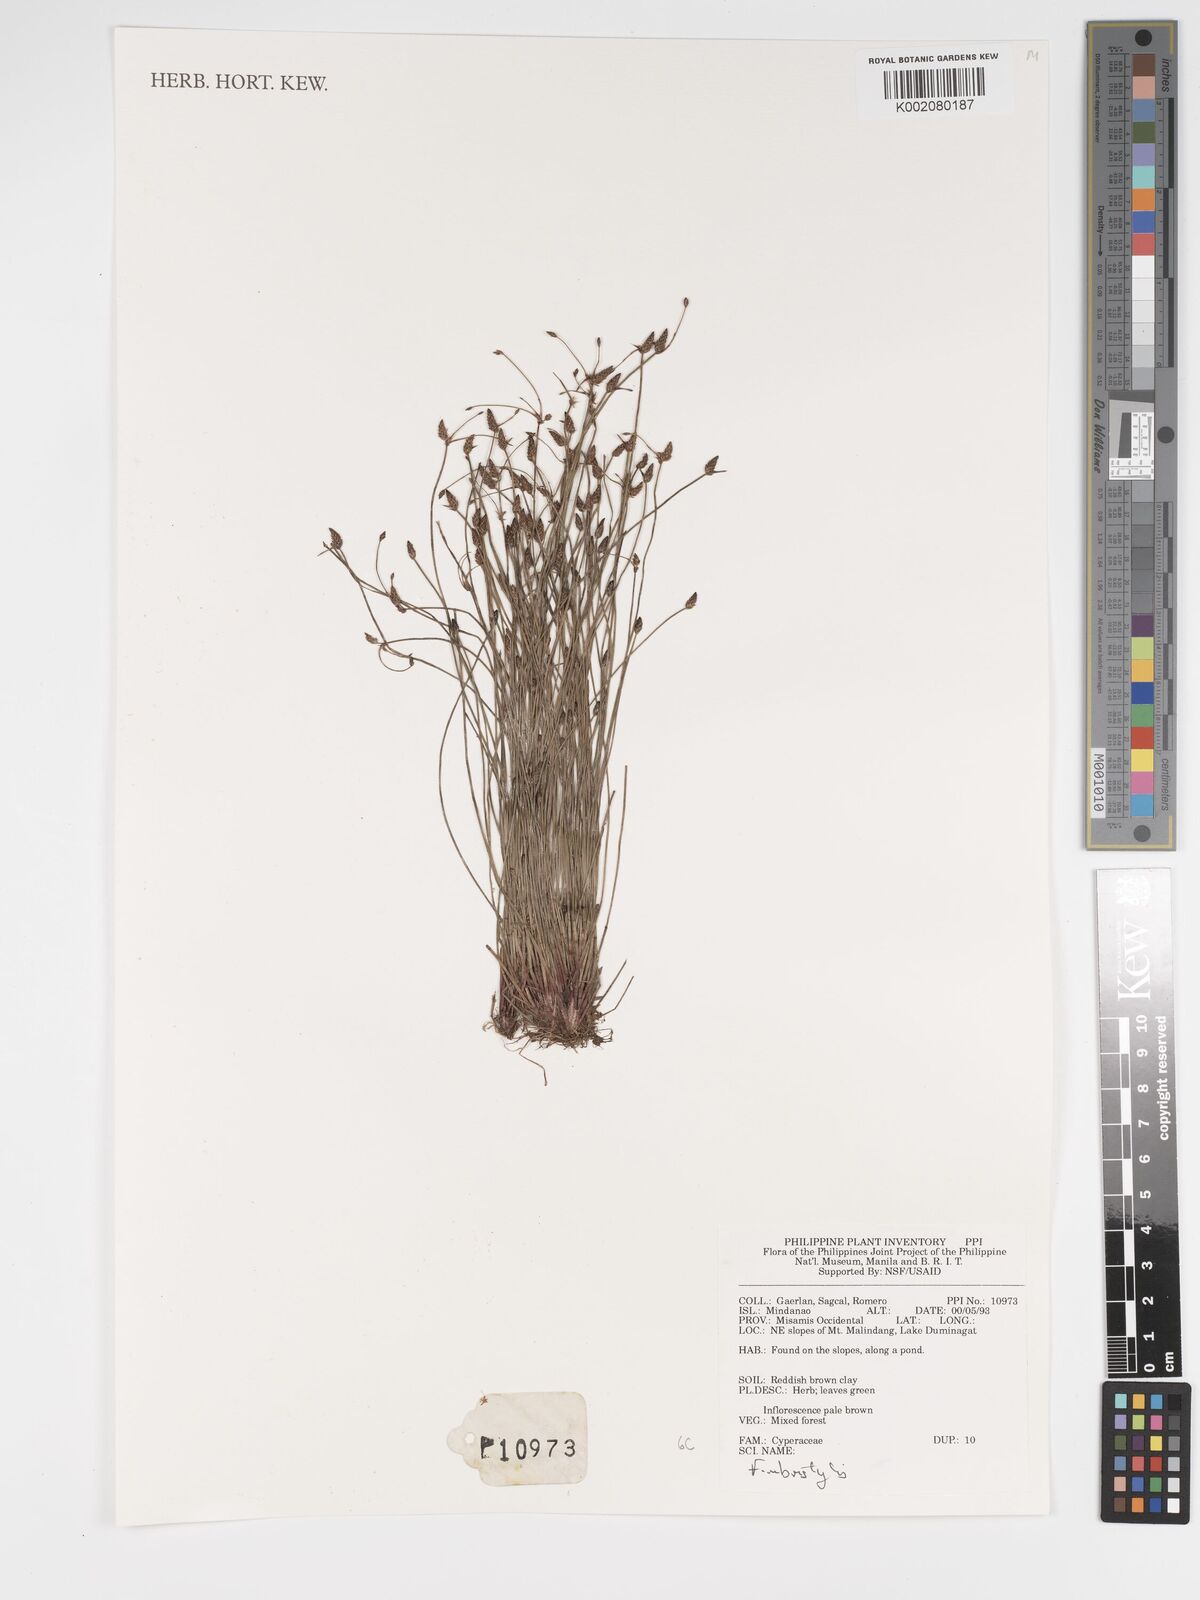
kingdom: Plantae
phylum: Tracheophyta
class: Liliopsida
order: Poales
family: Cyperaceae
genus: Fimbristylis
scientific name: Fimbristylis
